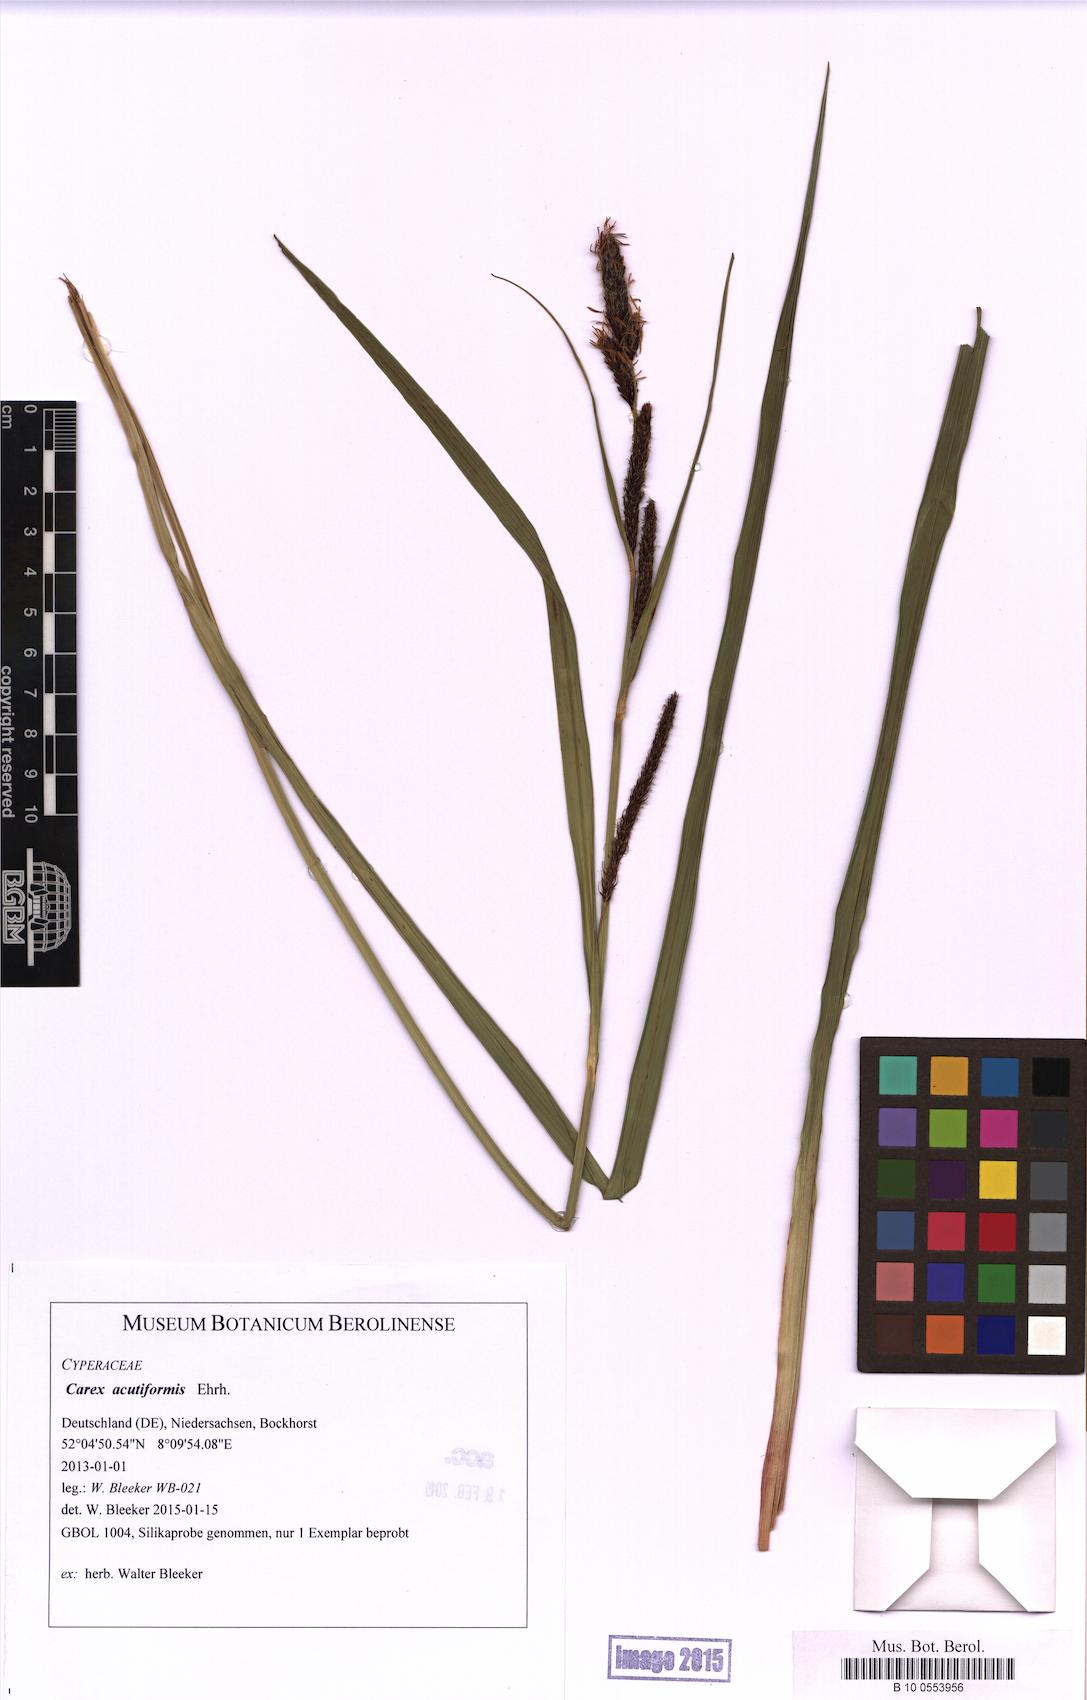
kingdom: Plantae
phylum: Tracheophyta
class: Liliopsida
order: Poales
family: Cyperaceae
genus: Carex
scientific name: Carex acutiformis
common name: Lesser pond-sedge
